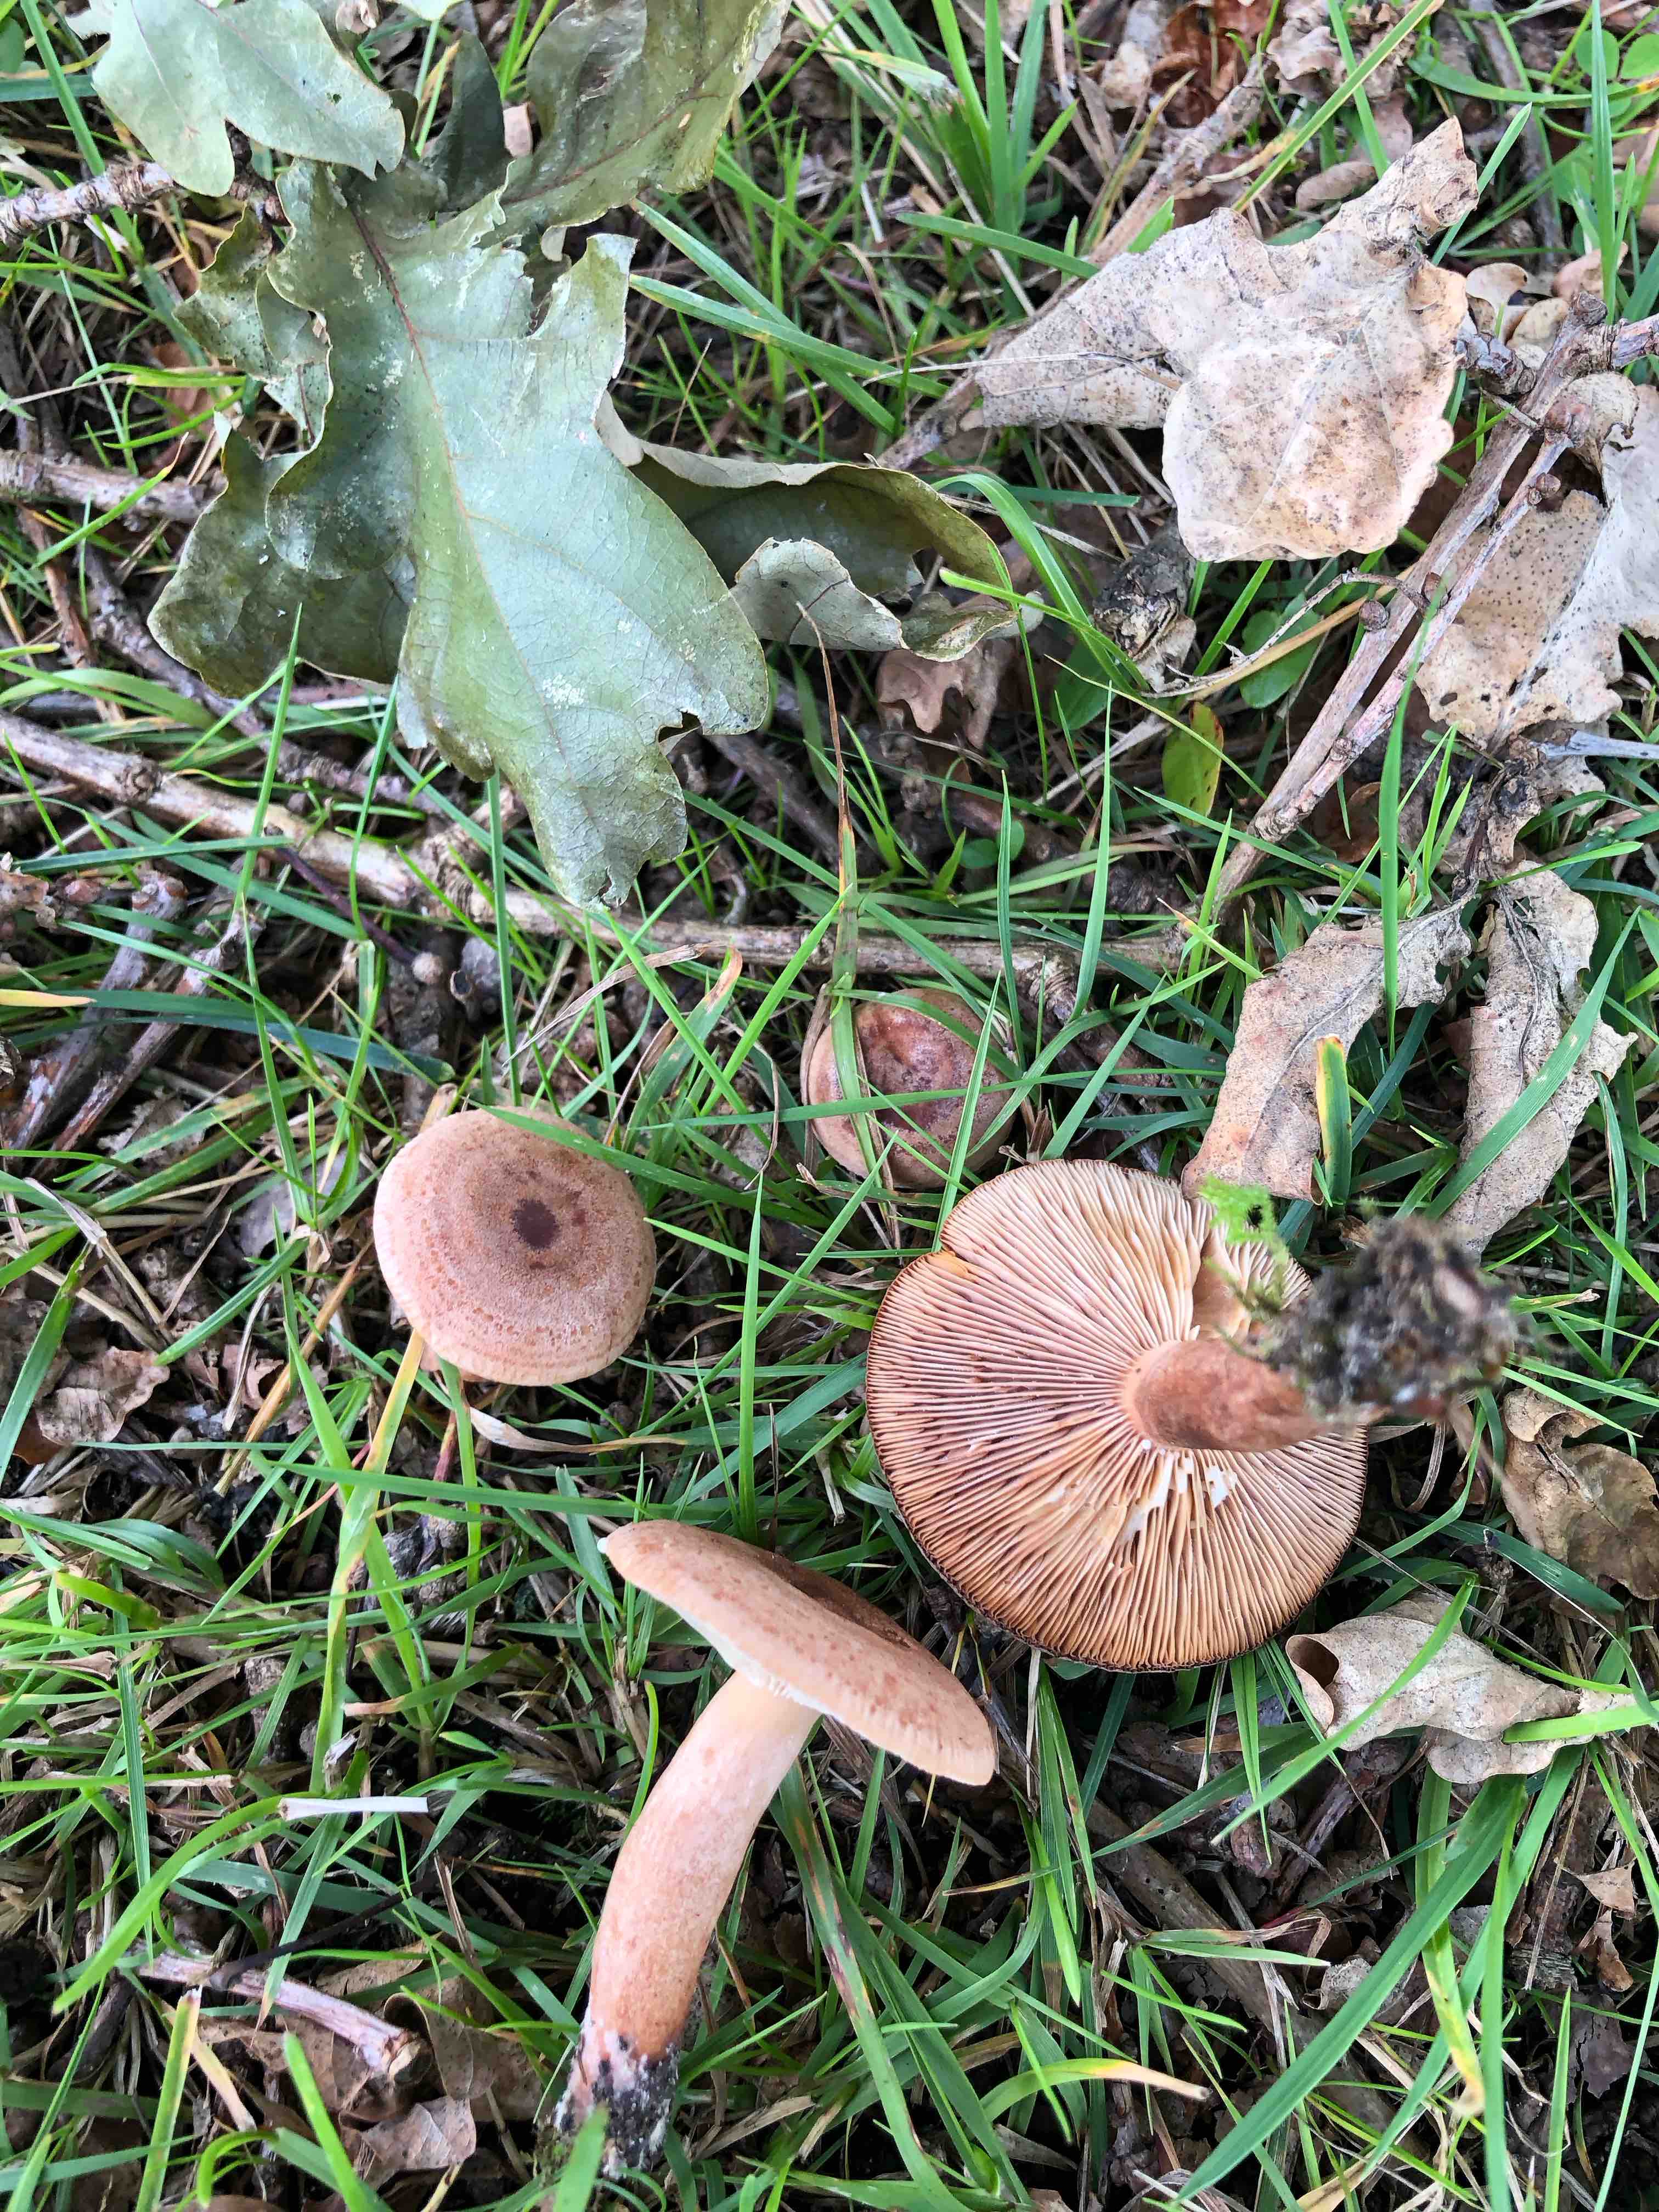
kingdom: Fungi
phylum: Basidiomycota
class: Agaricomycetes
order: Russulales
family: Russulaceae
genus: Lactarius
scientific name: Lactarius quietus
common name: ege-mælkehat
